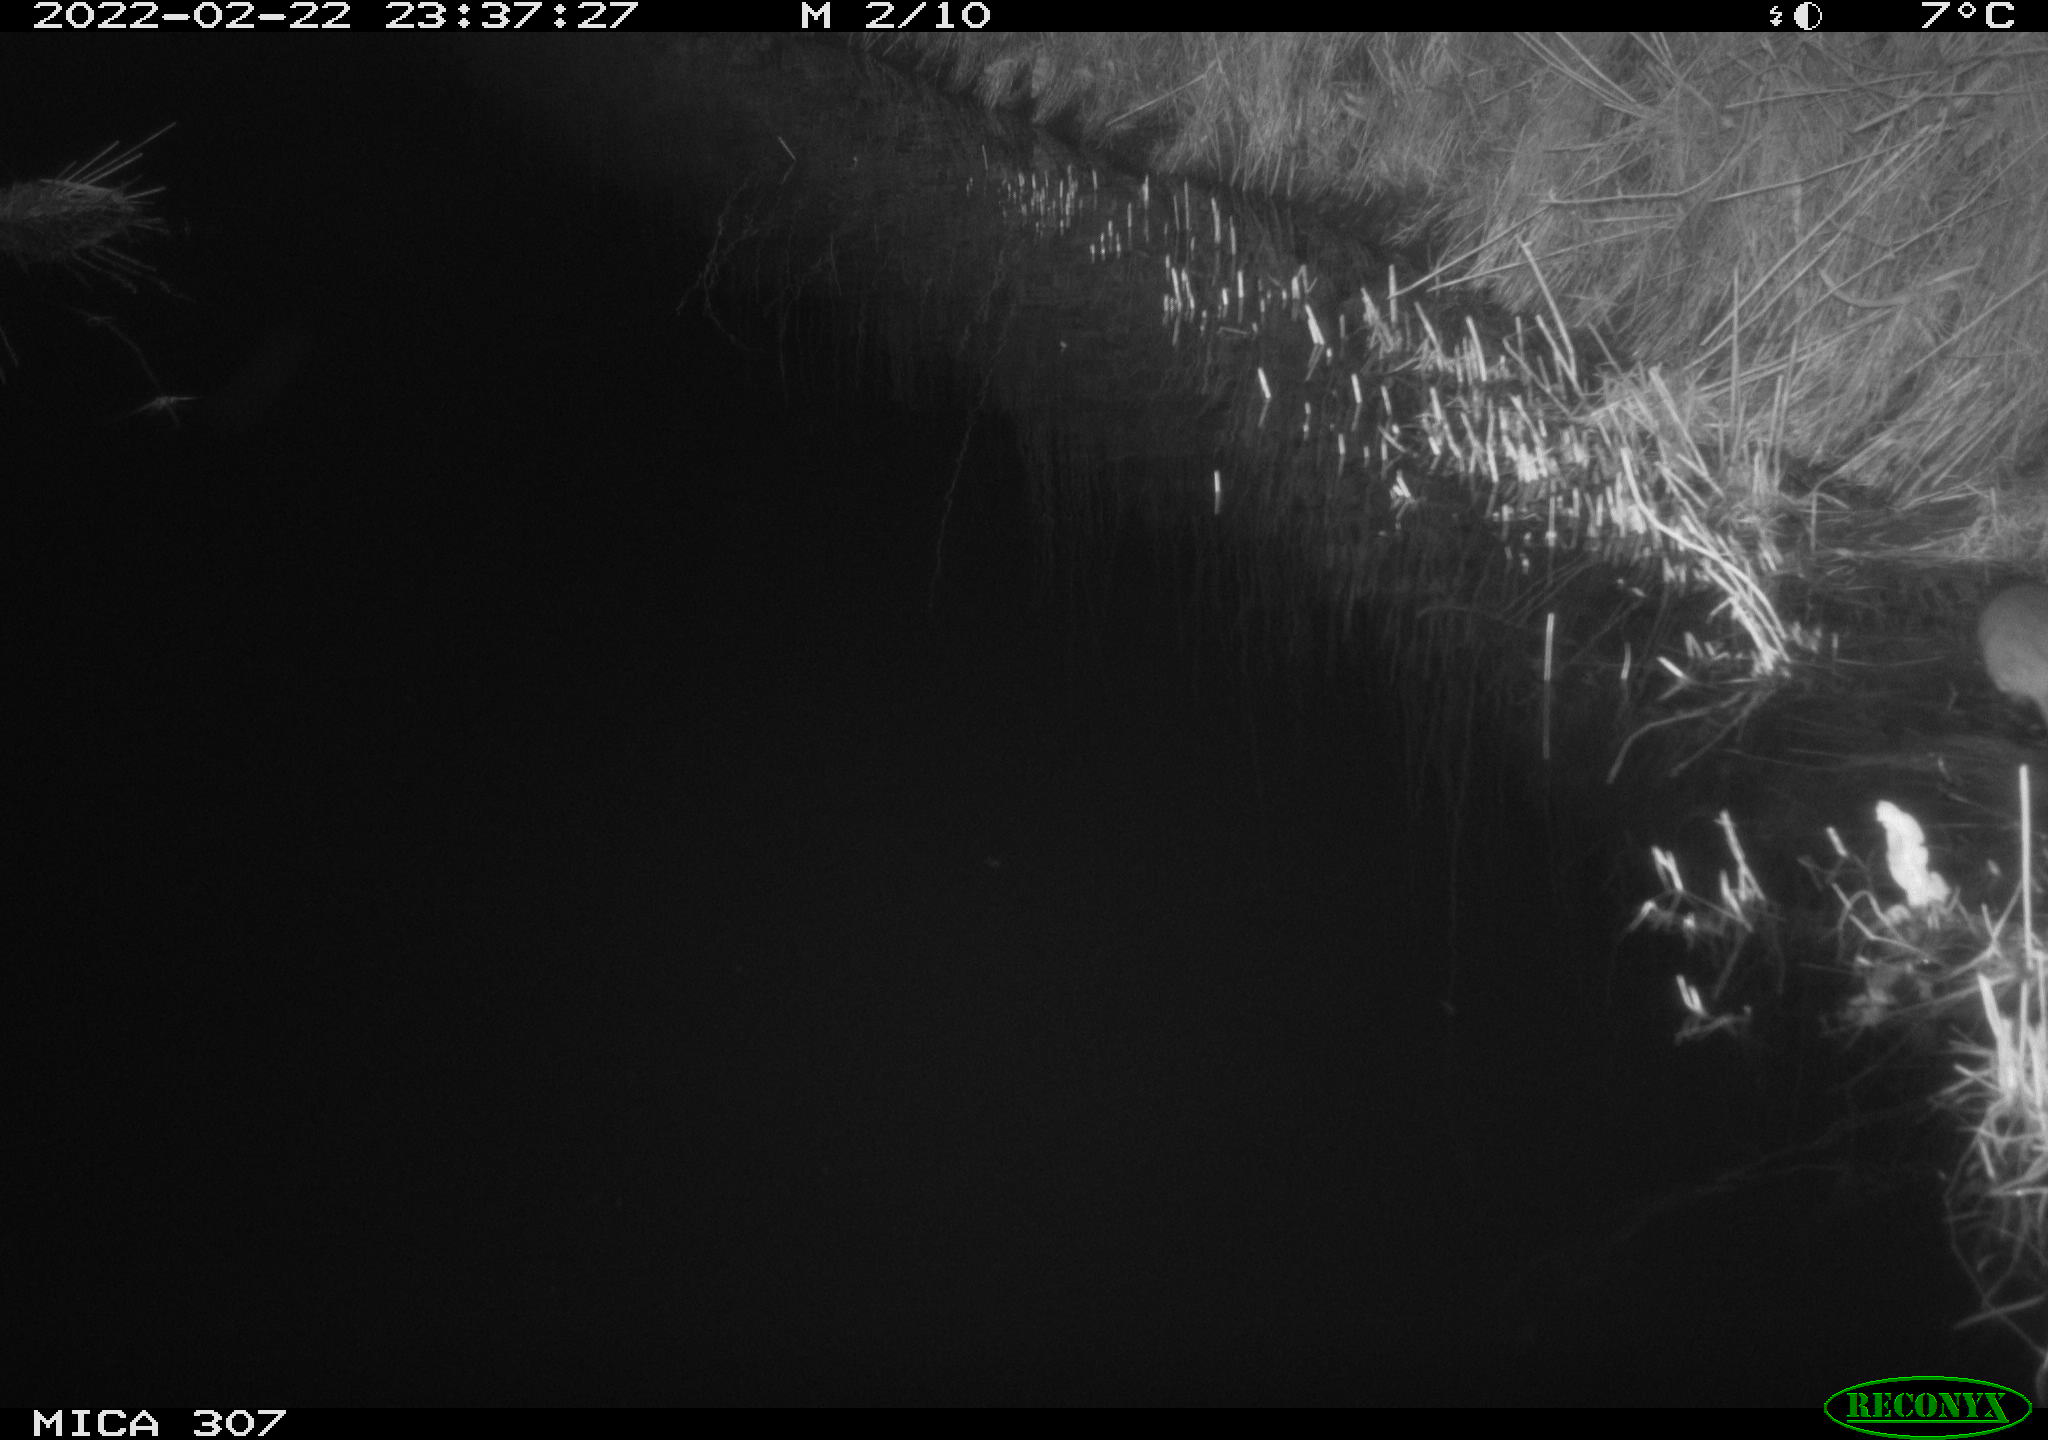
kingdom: Animalia
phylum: Chordata
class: Mammalia
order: Rodentia
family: Muridae
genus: Rattus
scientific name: Rattus norvegicus
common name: Brown rat
